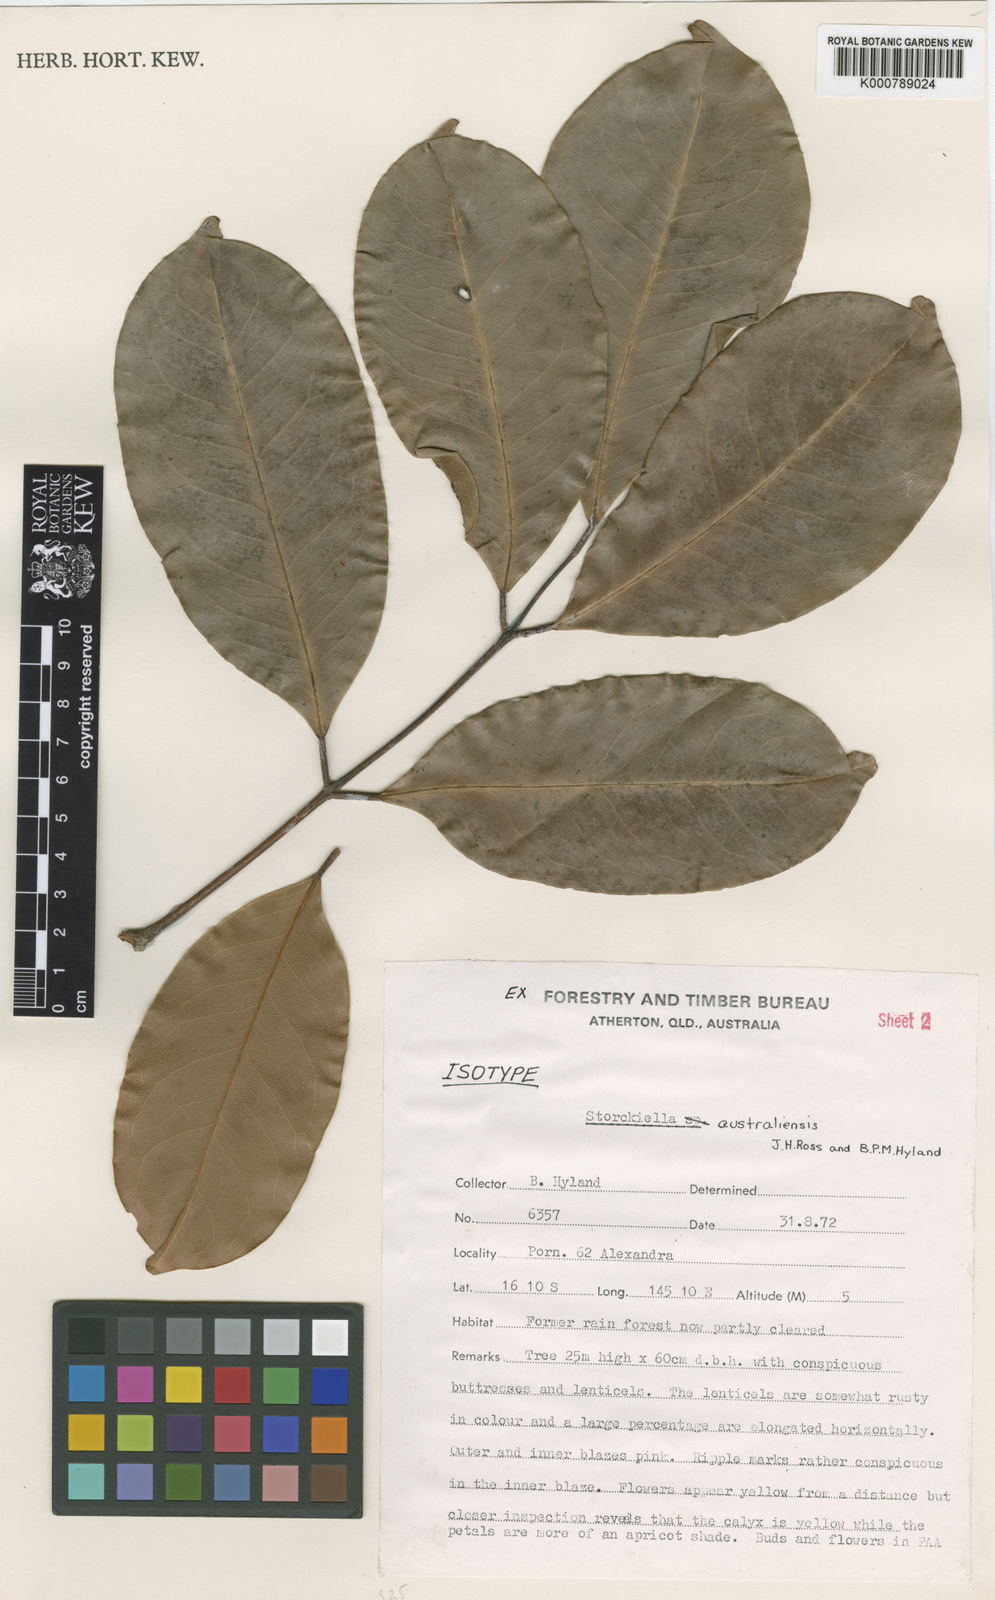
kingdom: Plantae
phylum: Tracheophyta
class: Magnoliopsida
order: Fabales
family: Fabaceae
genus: Storckiella
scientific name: Storckiella australiensis
